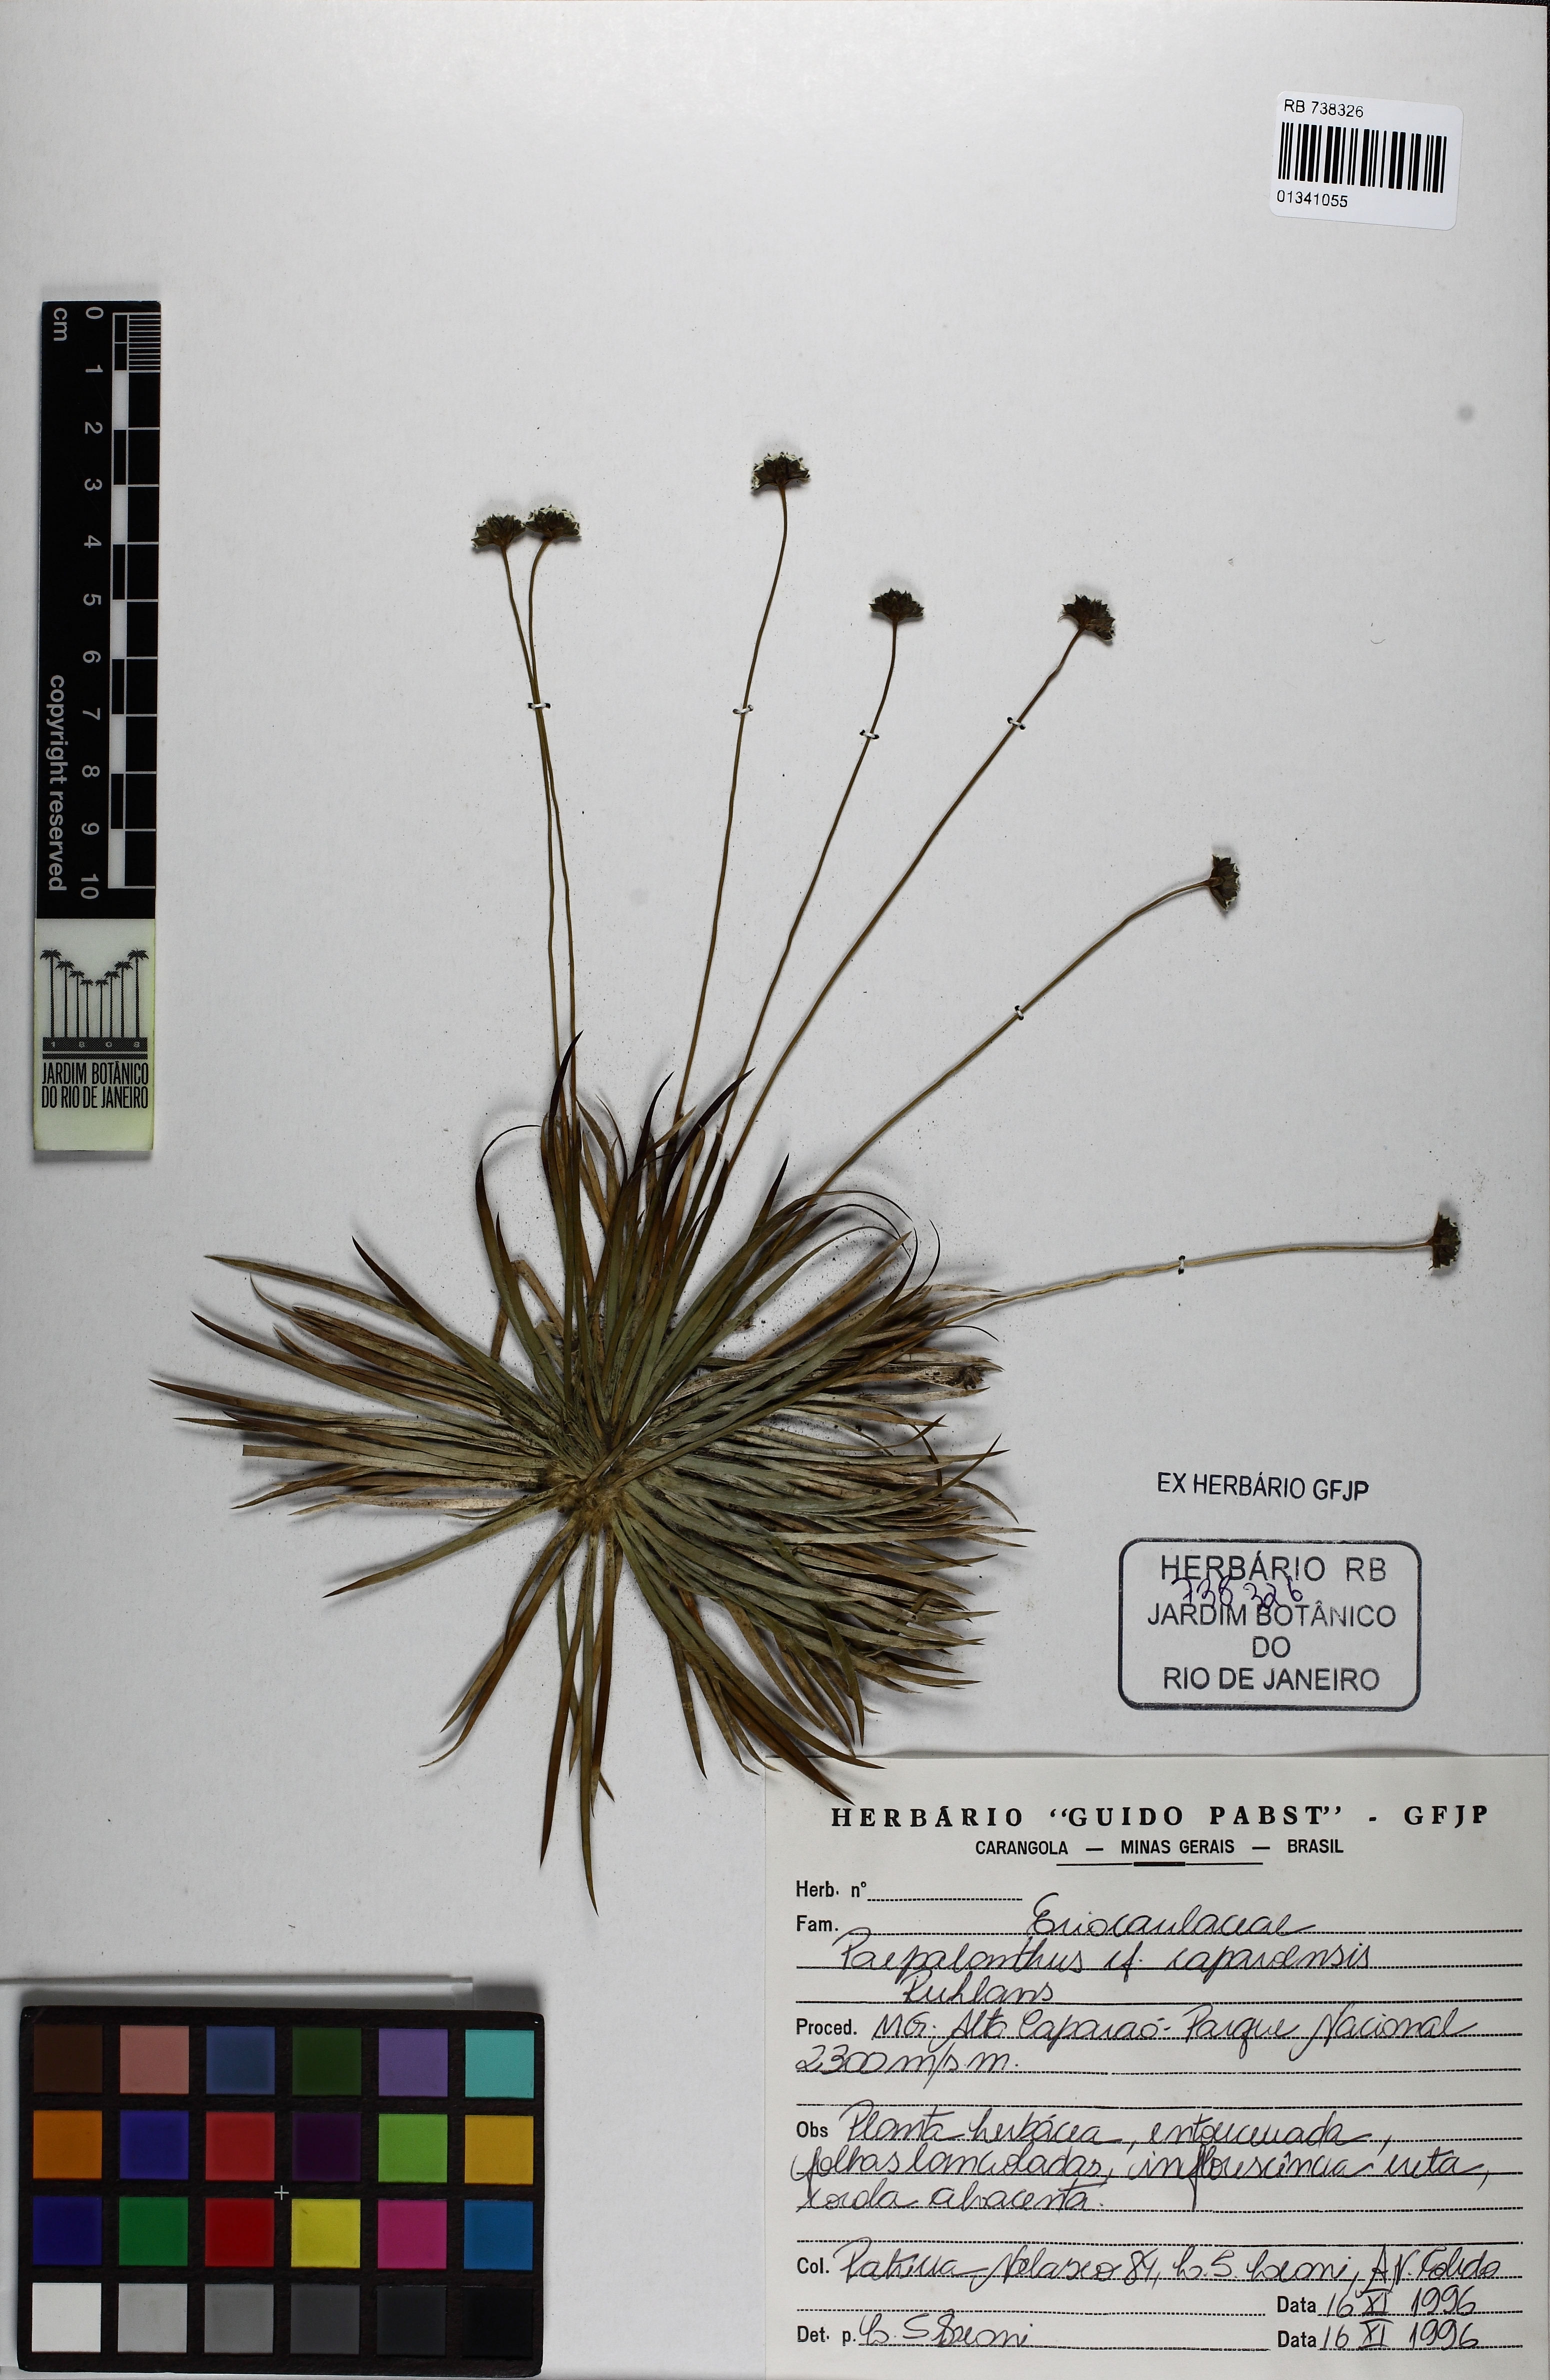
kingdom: Plantae
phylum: Tracheophyta
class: Liliopsida
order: Poales
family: Eriocaulaceae
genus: Paepalanthus
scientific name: Paepalanthus caparoensis
